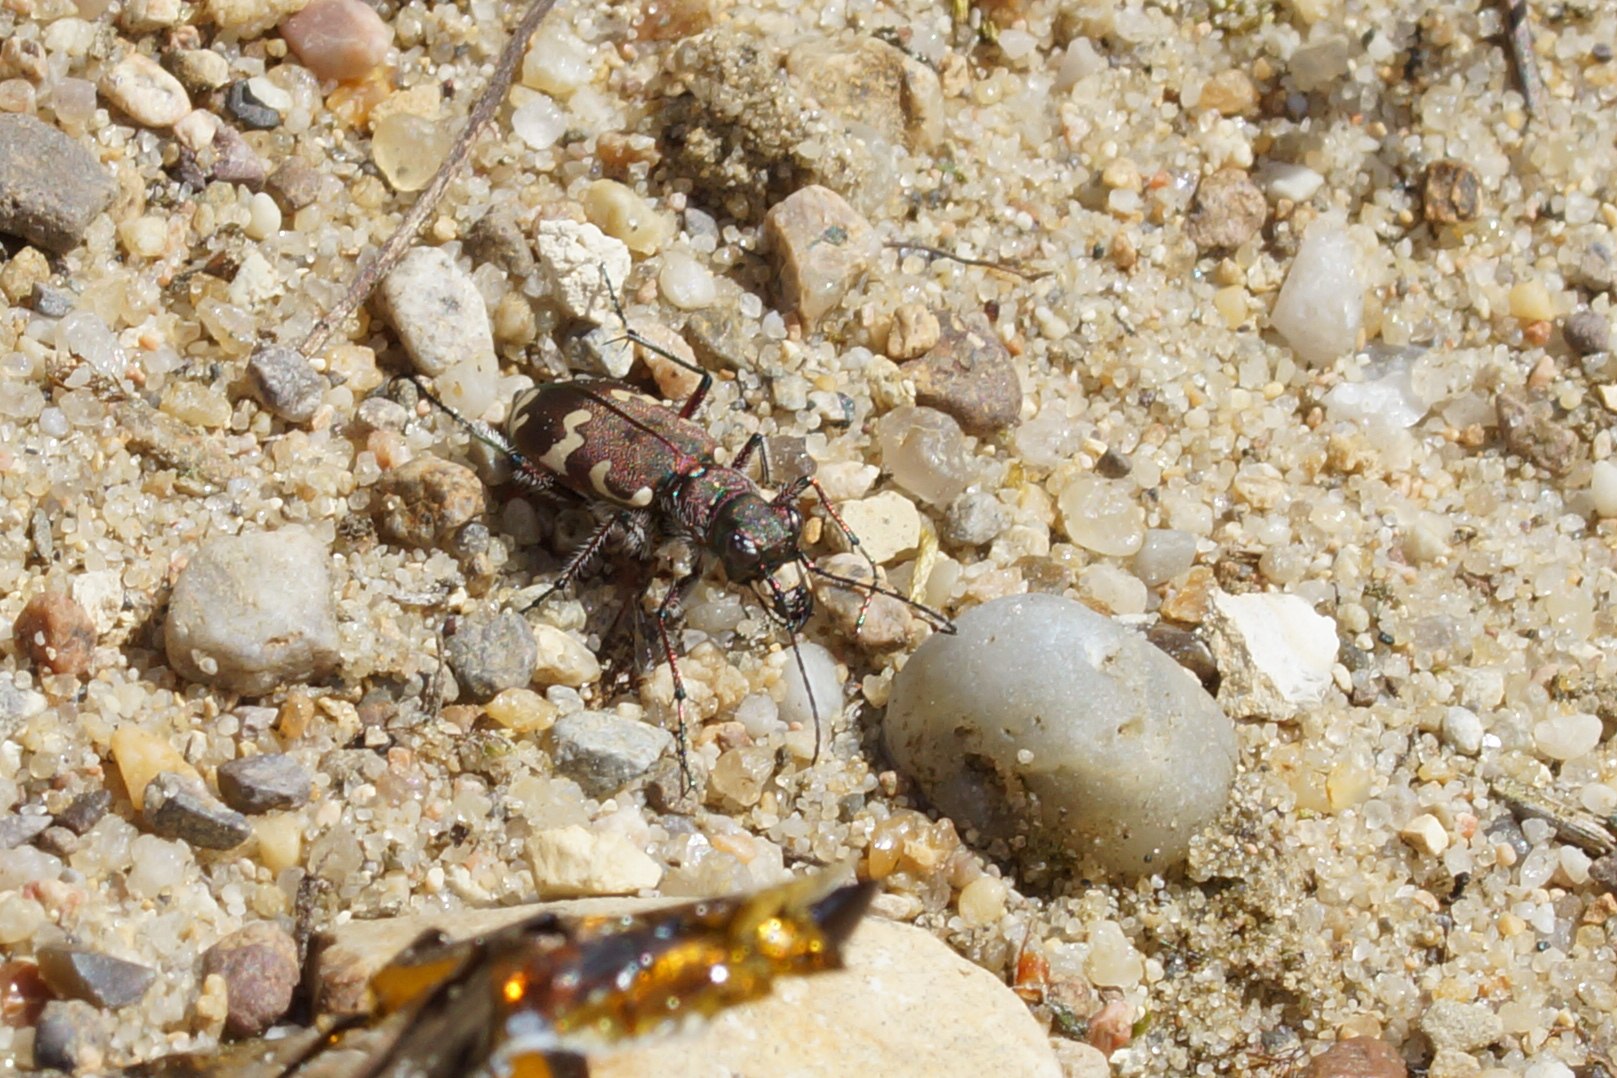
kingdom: Animalia
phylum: Arthropoda
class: Insecta
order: Coleoptera
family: Carabidae
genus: Cicindela
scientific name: Cicindela hybrida
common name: Brun sandspringer
